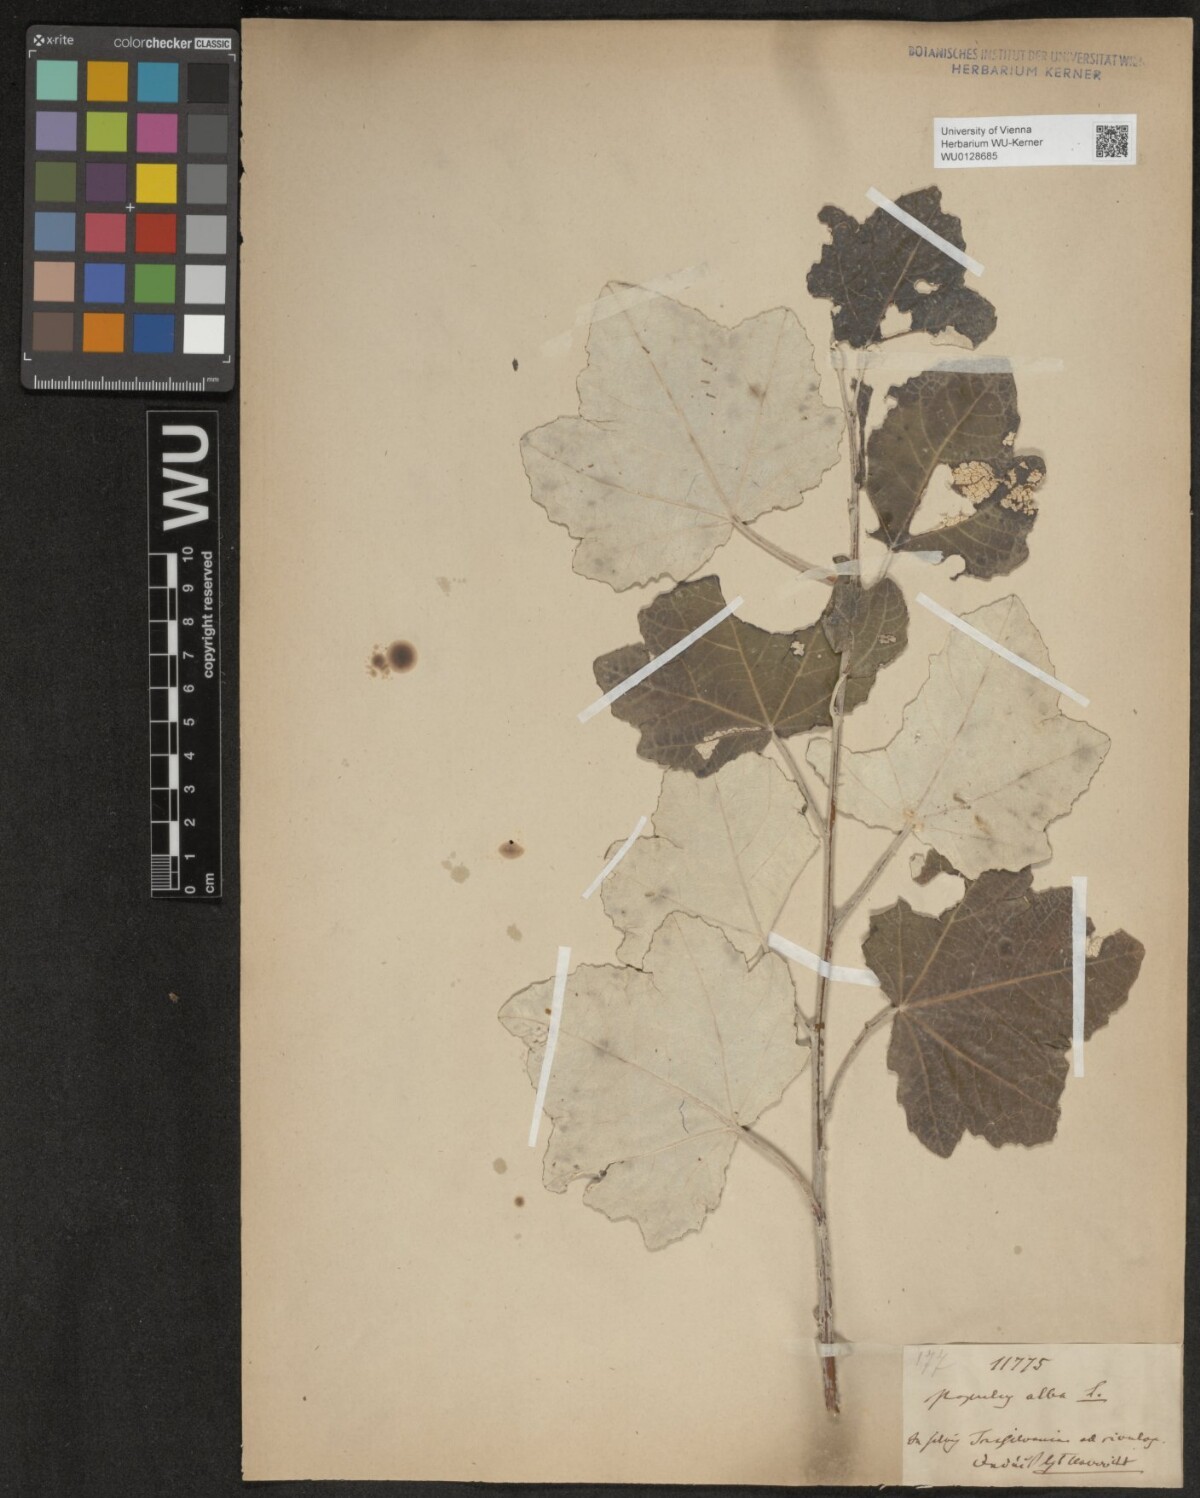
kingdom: Plantae
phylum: Tracheophyta
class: Magnoliopsida
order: Malpighiales
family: Salicaceae
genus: Populus
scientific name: Populus alba
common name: White poplar
